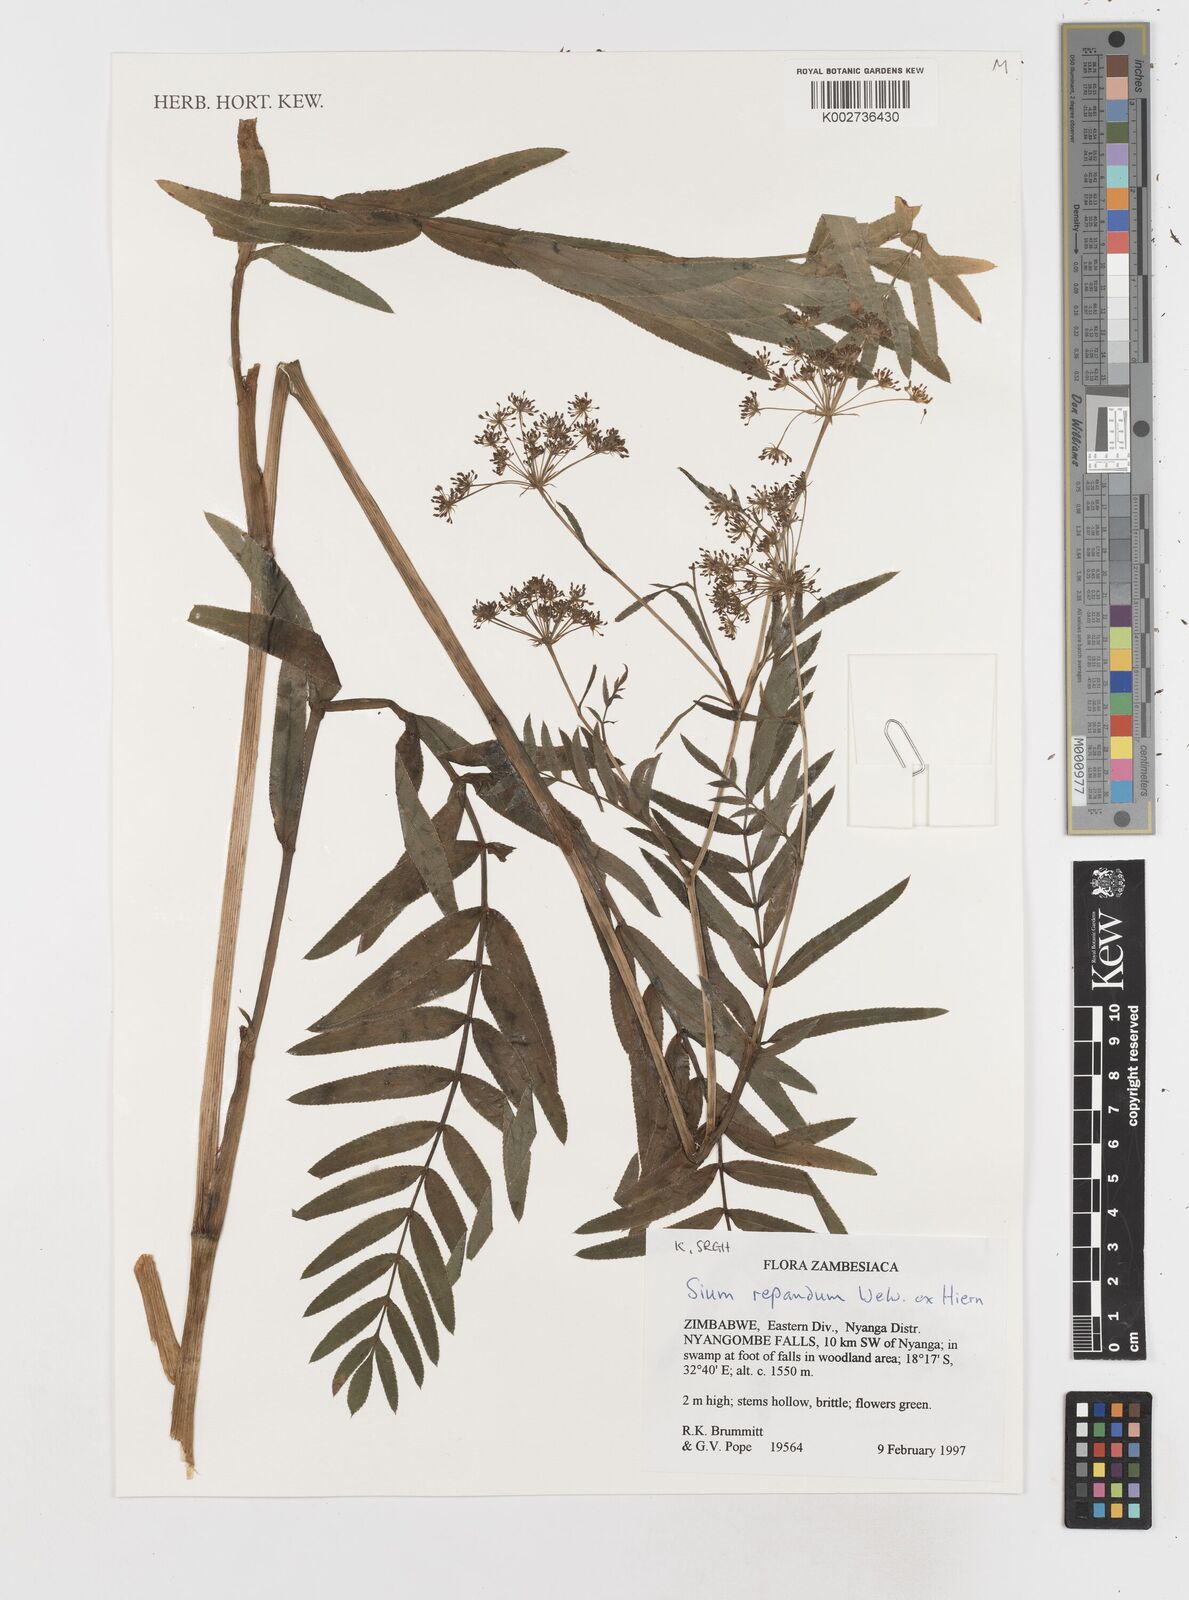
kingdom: Plantae
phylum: Tracheophyta
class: Magnoliopsida
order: Apiales
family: Apiaceae
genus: Berula
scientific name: Berula repanda
